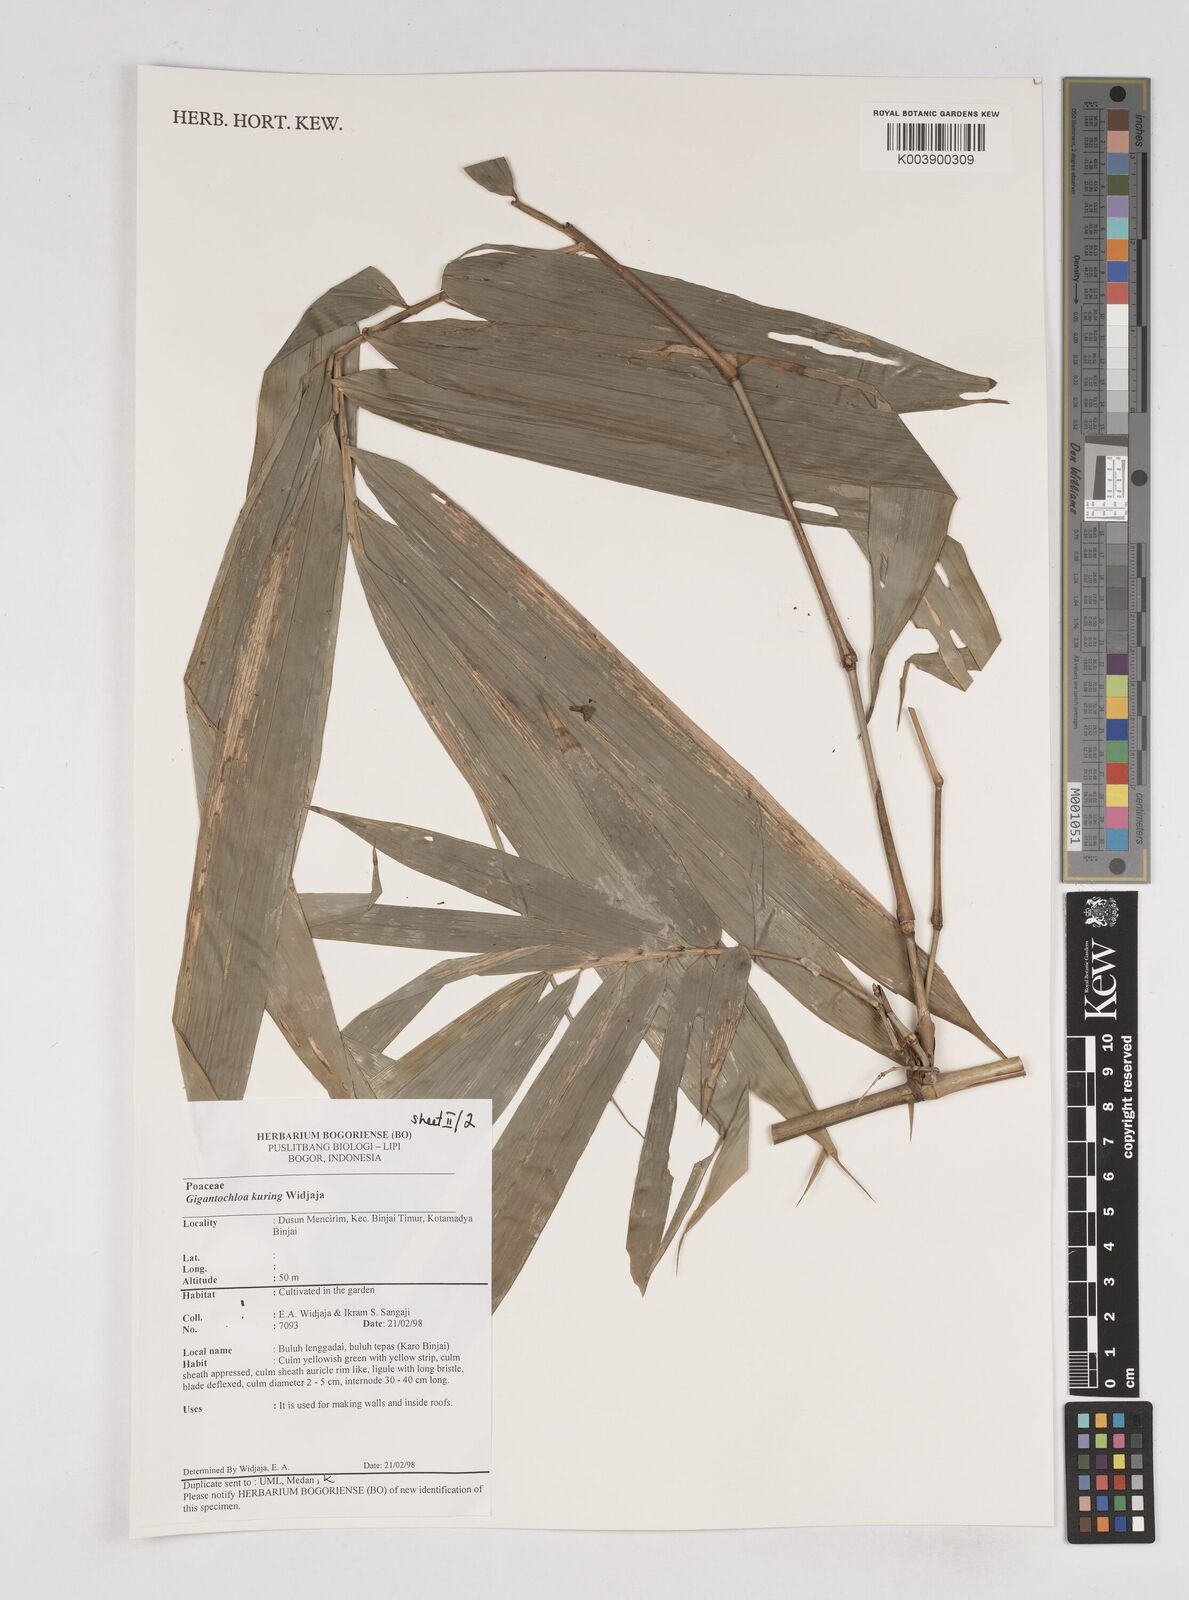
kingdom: Plantae
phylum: Tracheophyta
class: Liliopsida
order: Poales
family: Poaceae
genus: Gigantochloa
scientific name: Gigantochloa kuring
